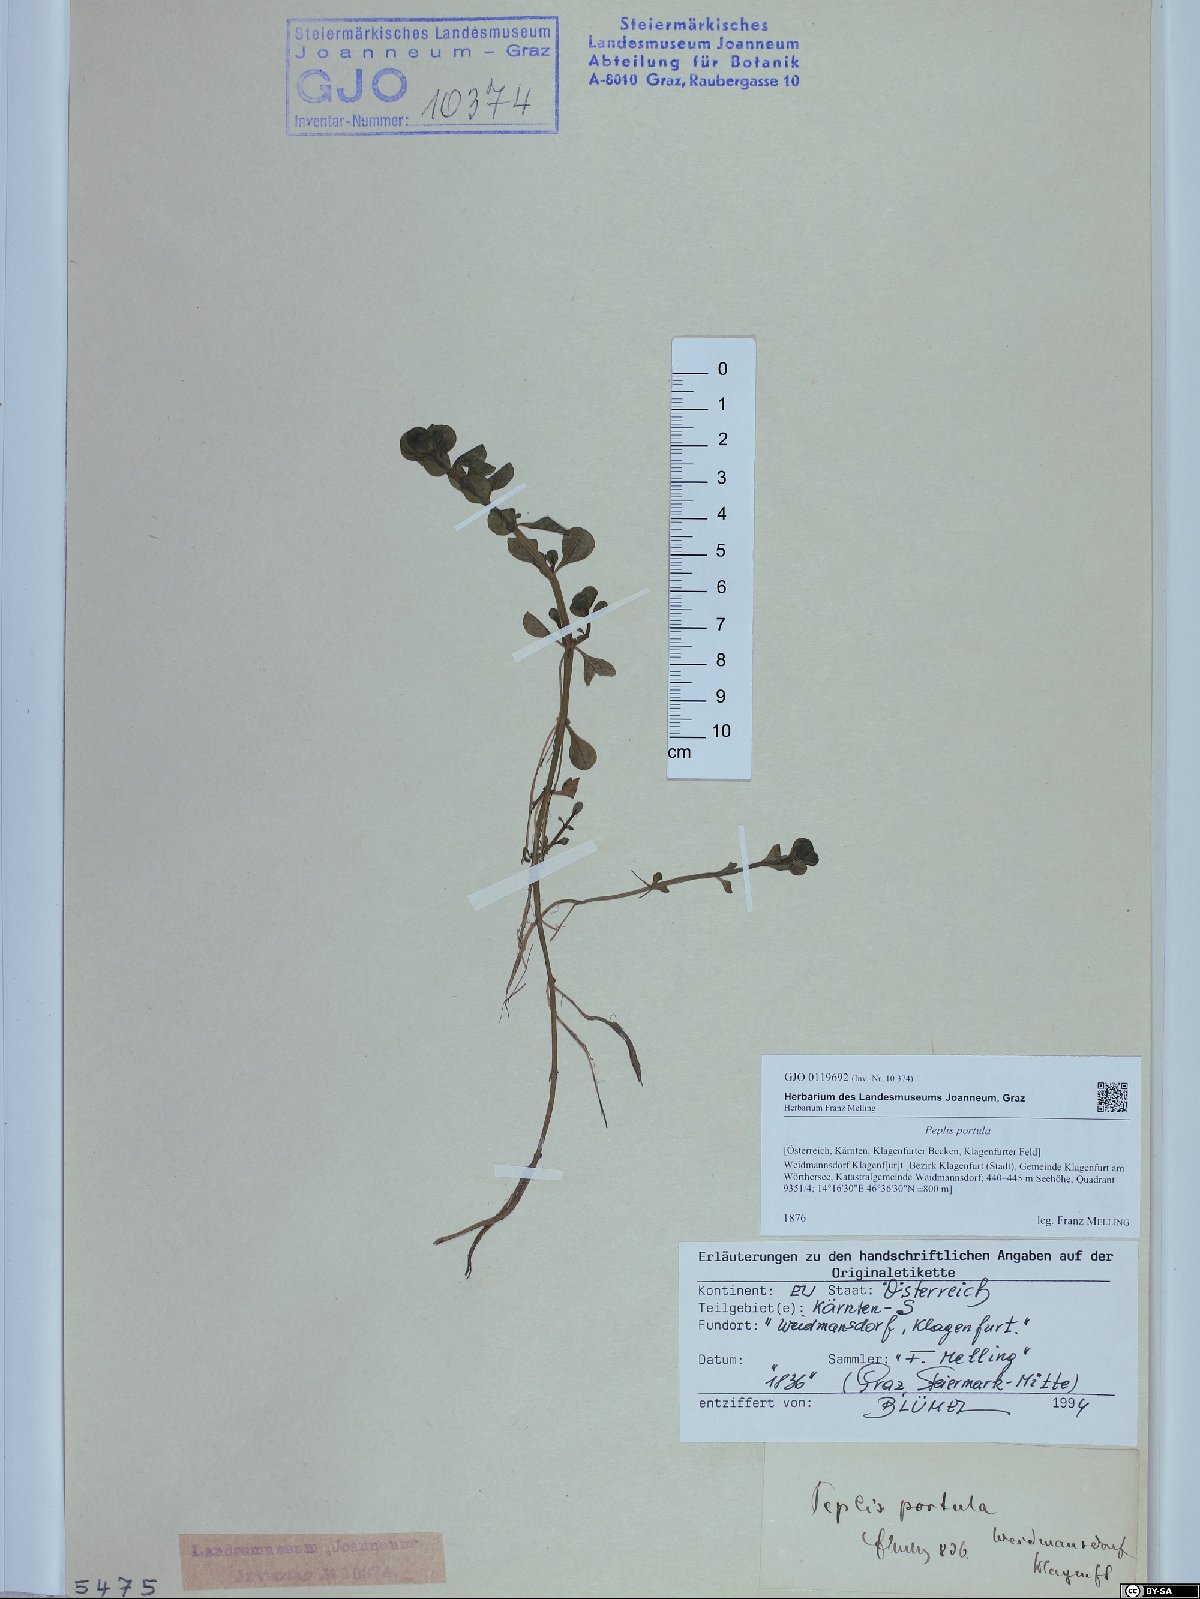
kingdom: Plantae
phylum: Tracheophyta
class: Magnoliopsida
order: Myrtales
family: Lythraceae
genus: Lythrum
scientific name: Lythrum portula
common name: Water purslane
